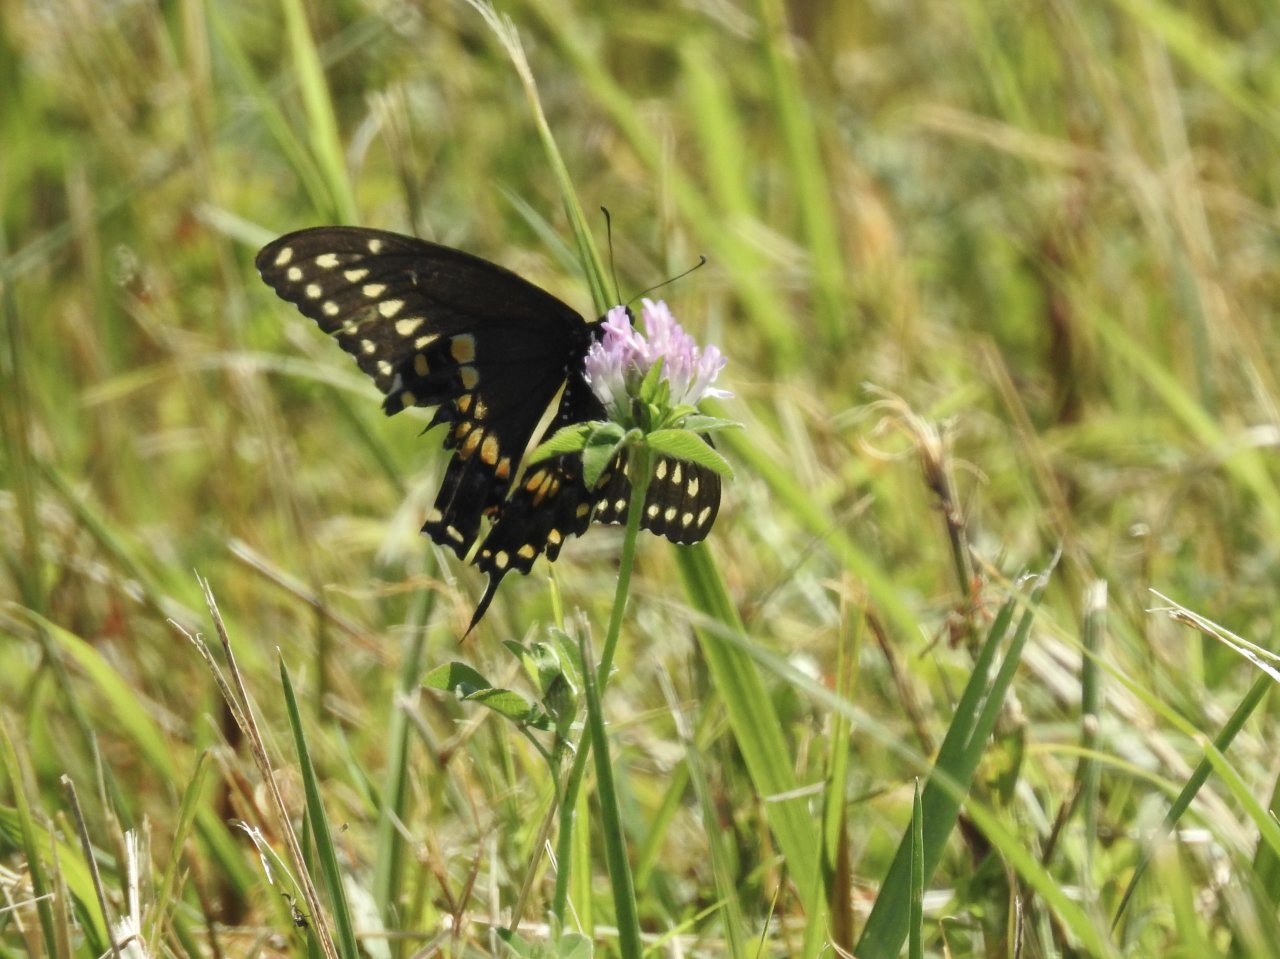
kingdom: Animalia
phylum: Arthropoda
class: Insecta
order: Lepidoptera
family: Papilionidae
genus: Papilio
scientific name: Papilio polyxenes
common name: Black Swallowtail
